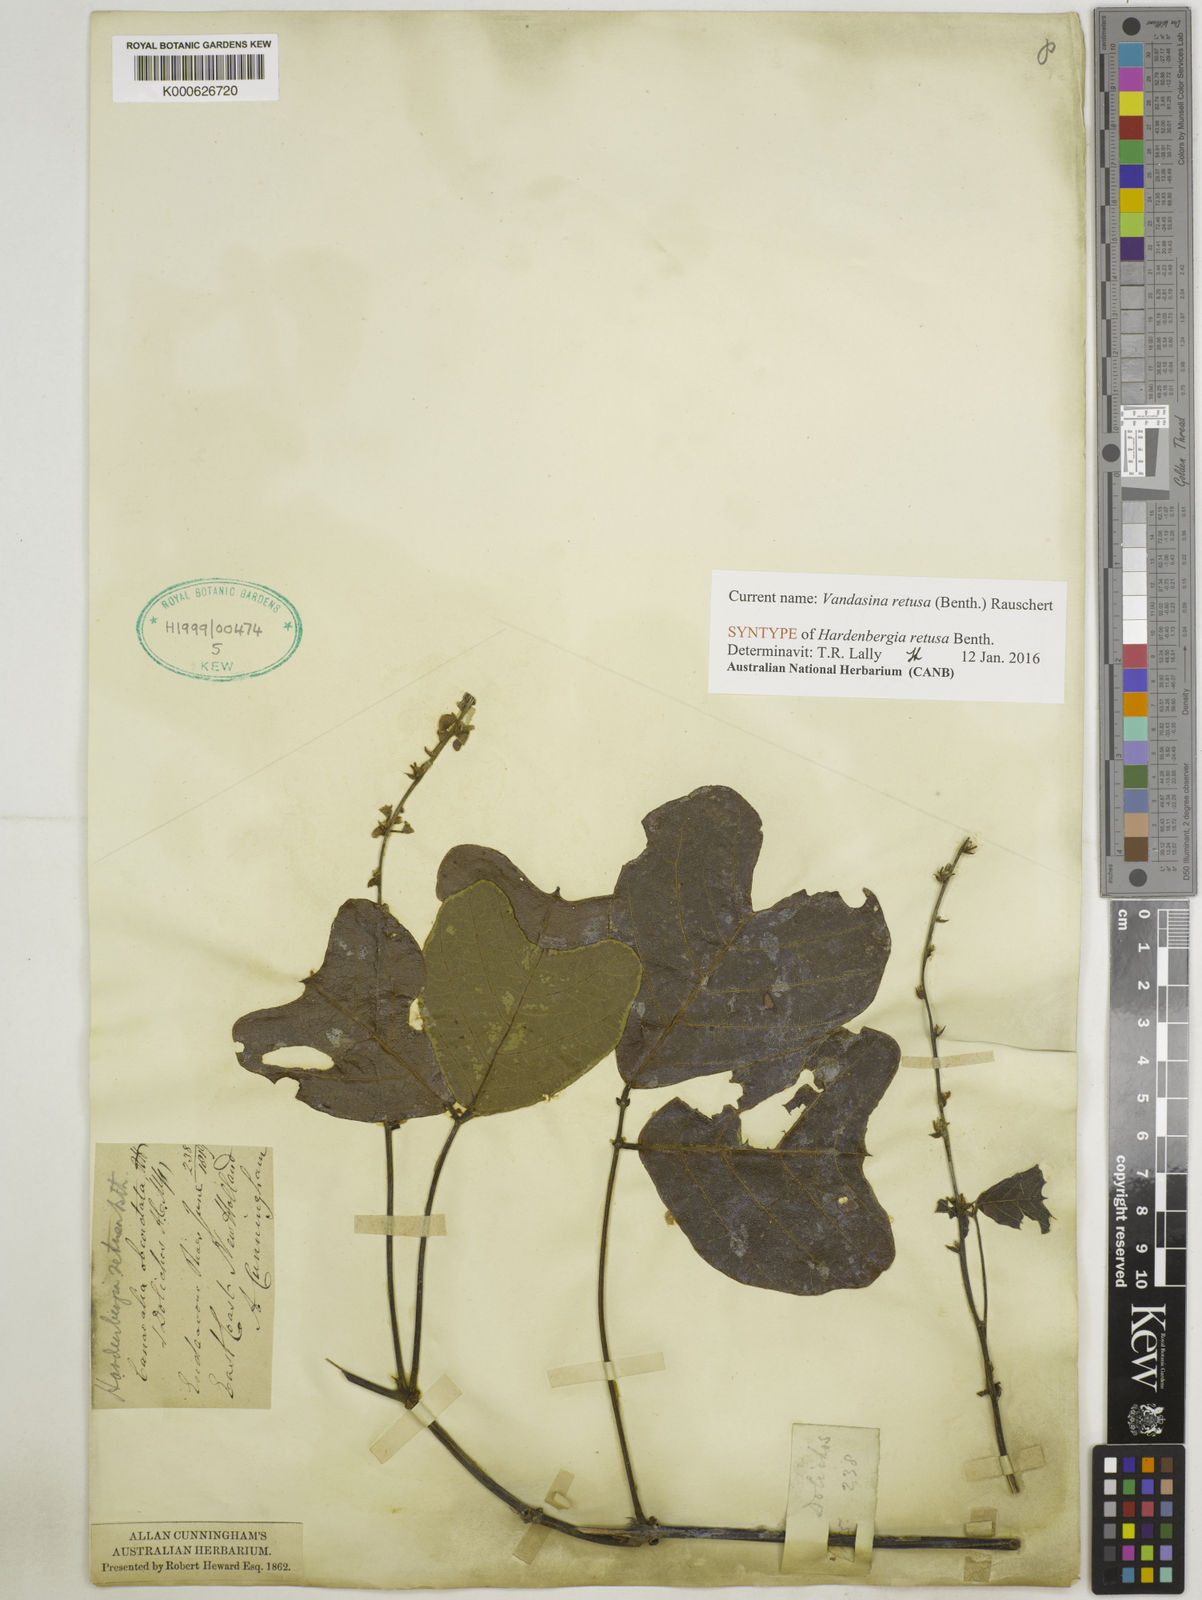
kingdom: Plantae
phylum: Tracheophyta
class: Magnoliopsida
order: Fabales
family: Fabaceae
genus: Vandasina
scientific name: Vandasina retusa
